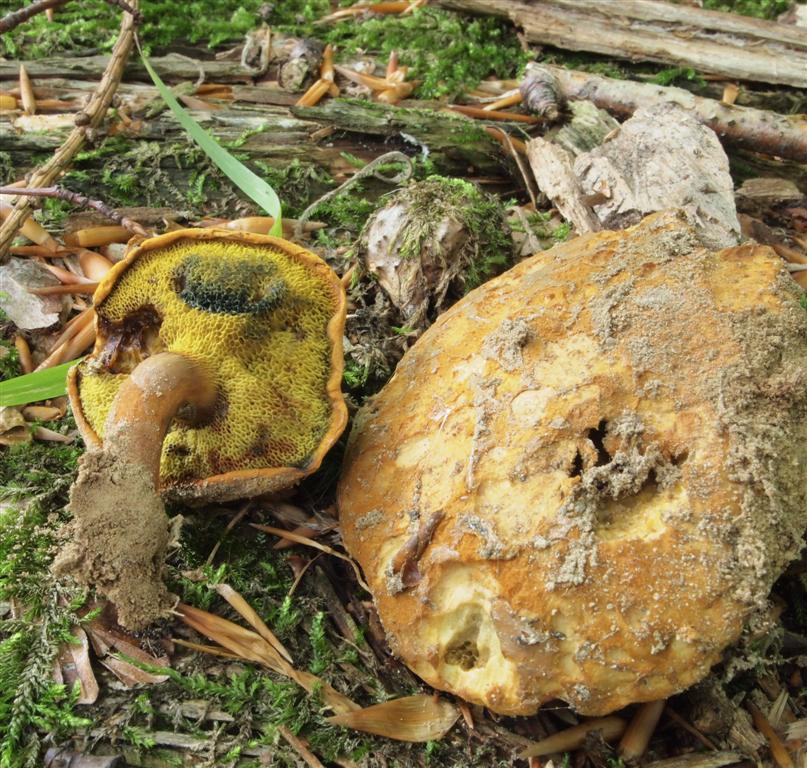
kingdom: Fungi
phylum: Basidiomycota
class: Agaricomycetes
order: Boletales
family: Boletaceae
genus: Buchwaldoboletus
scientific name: Buchwaldoboletus lignicola
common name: stødrørhat
